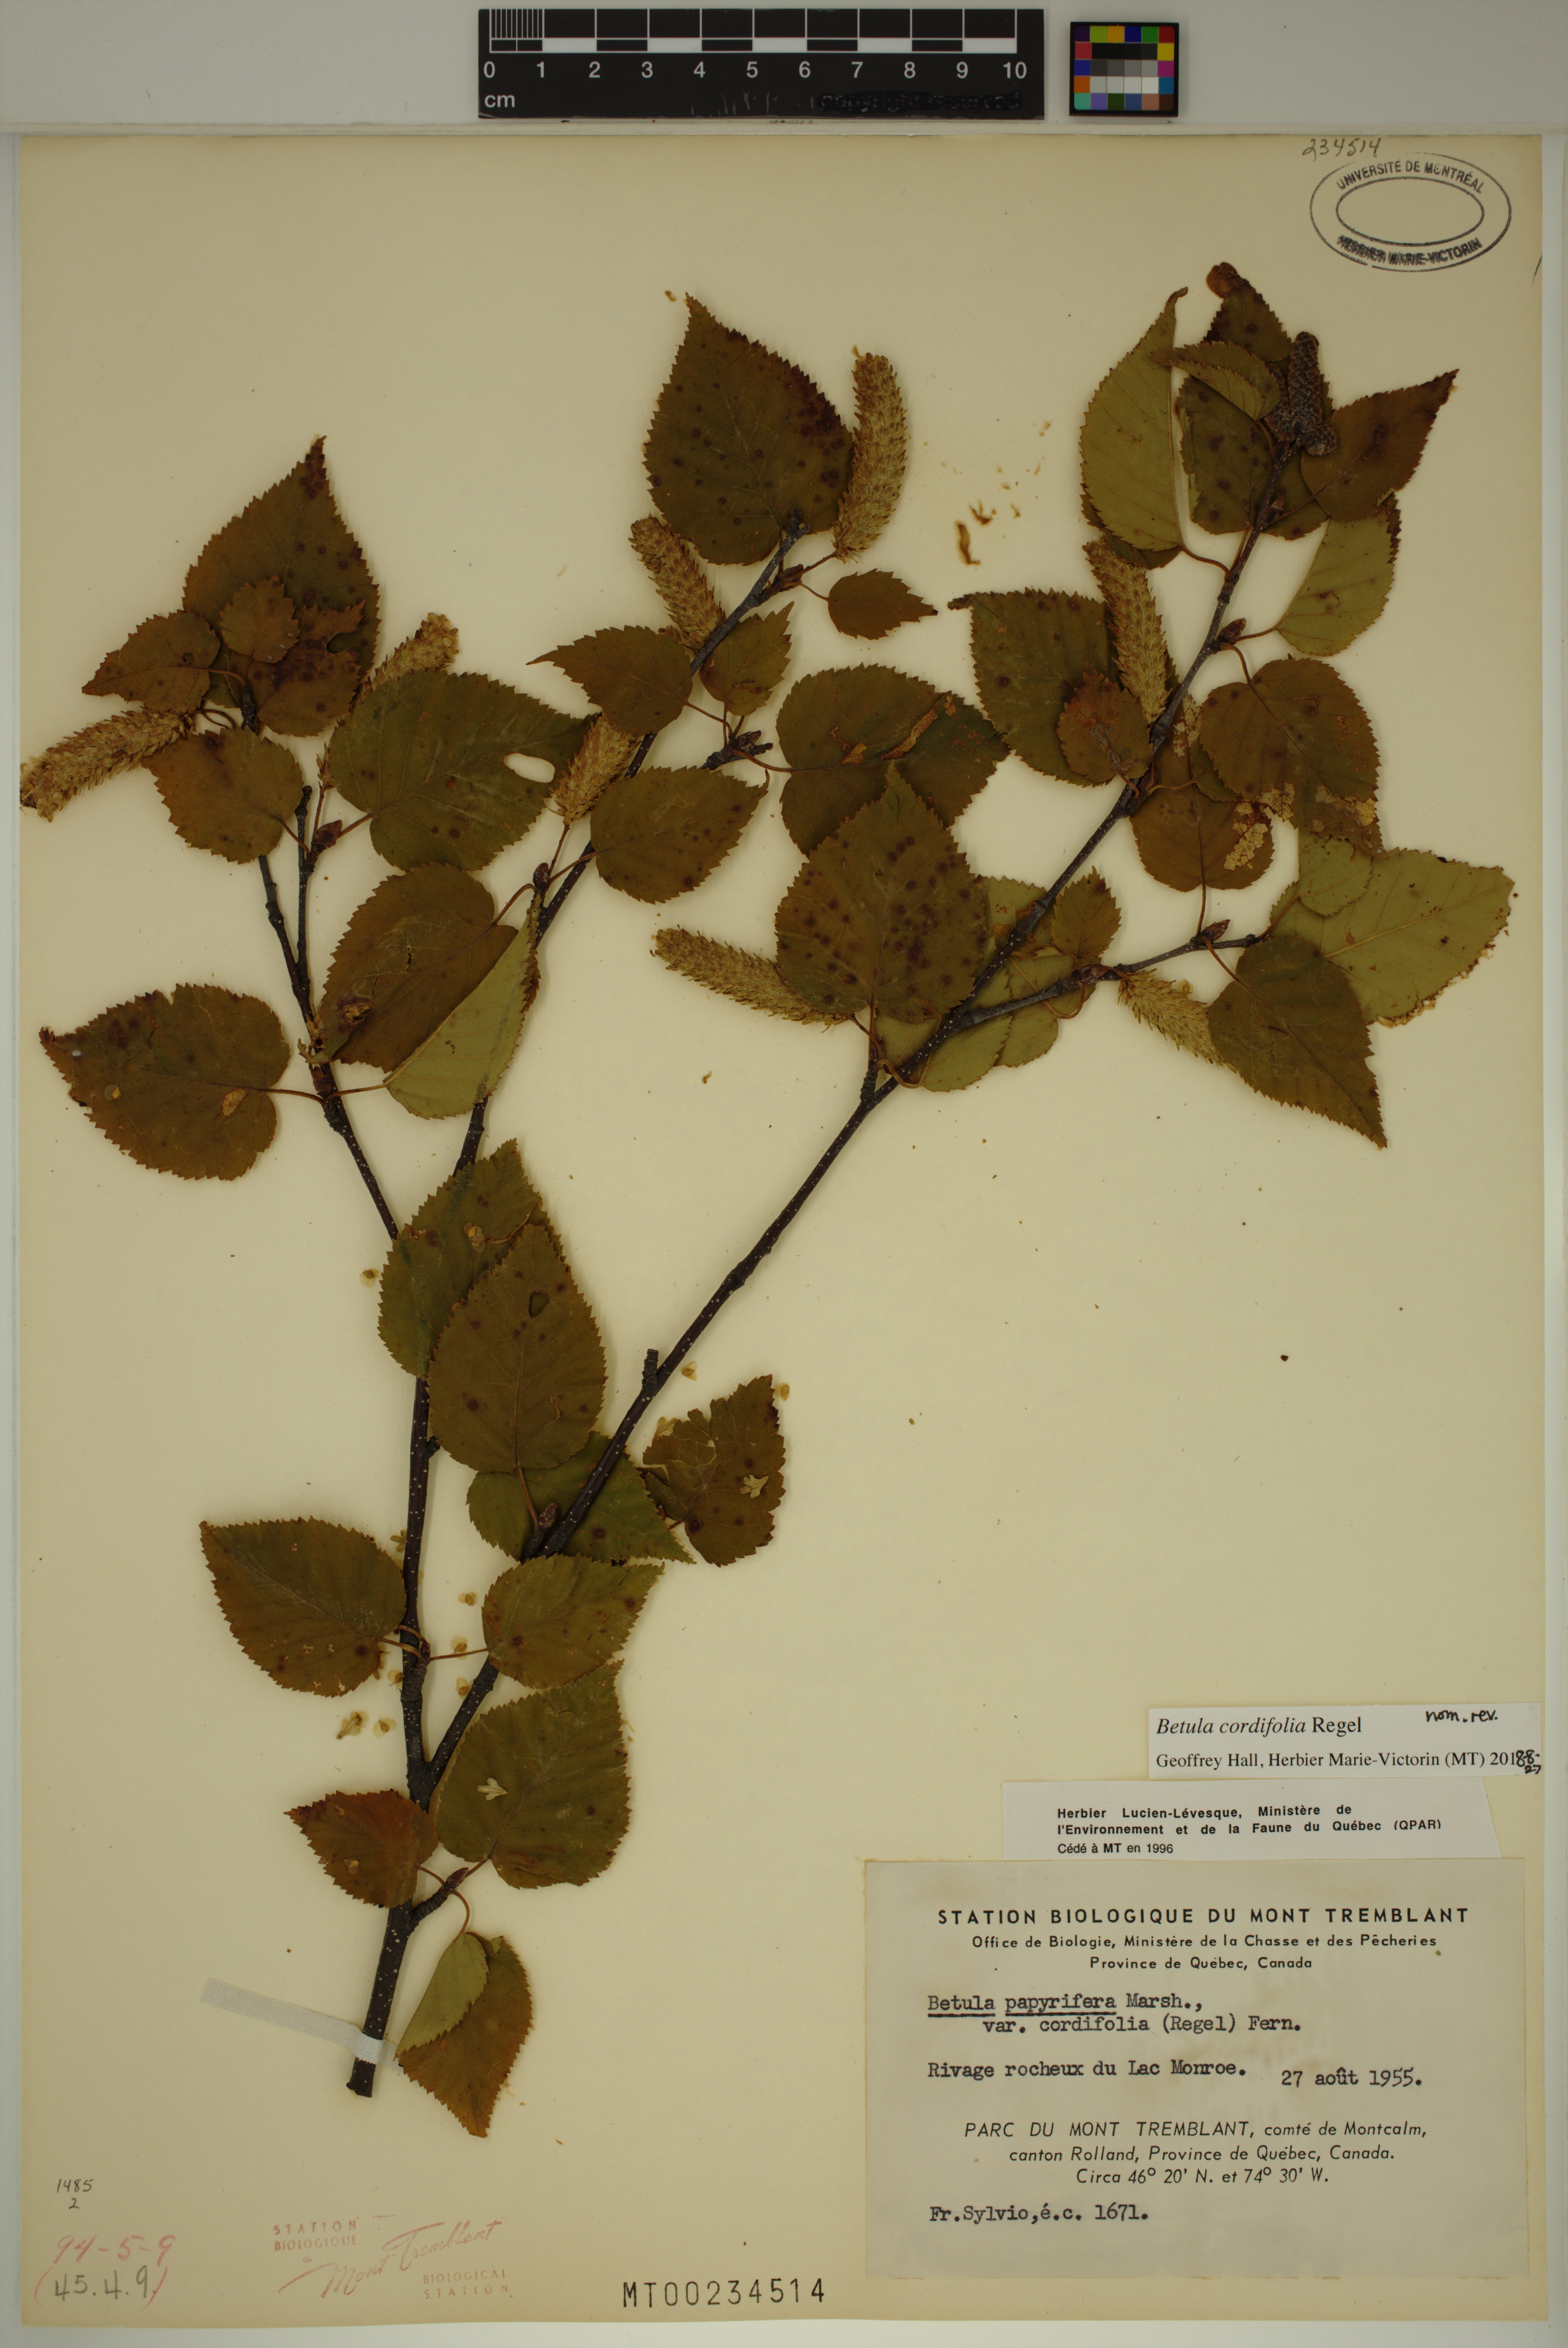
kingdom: Plantae
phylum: Tracheophyta
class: Magnoliopsida
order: Fagales
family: Betulaceae
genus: Betula
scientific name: Betula cordifolia
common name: Mountain white birch
